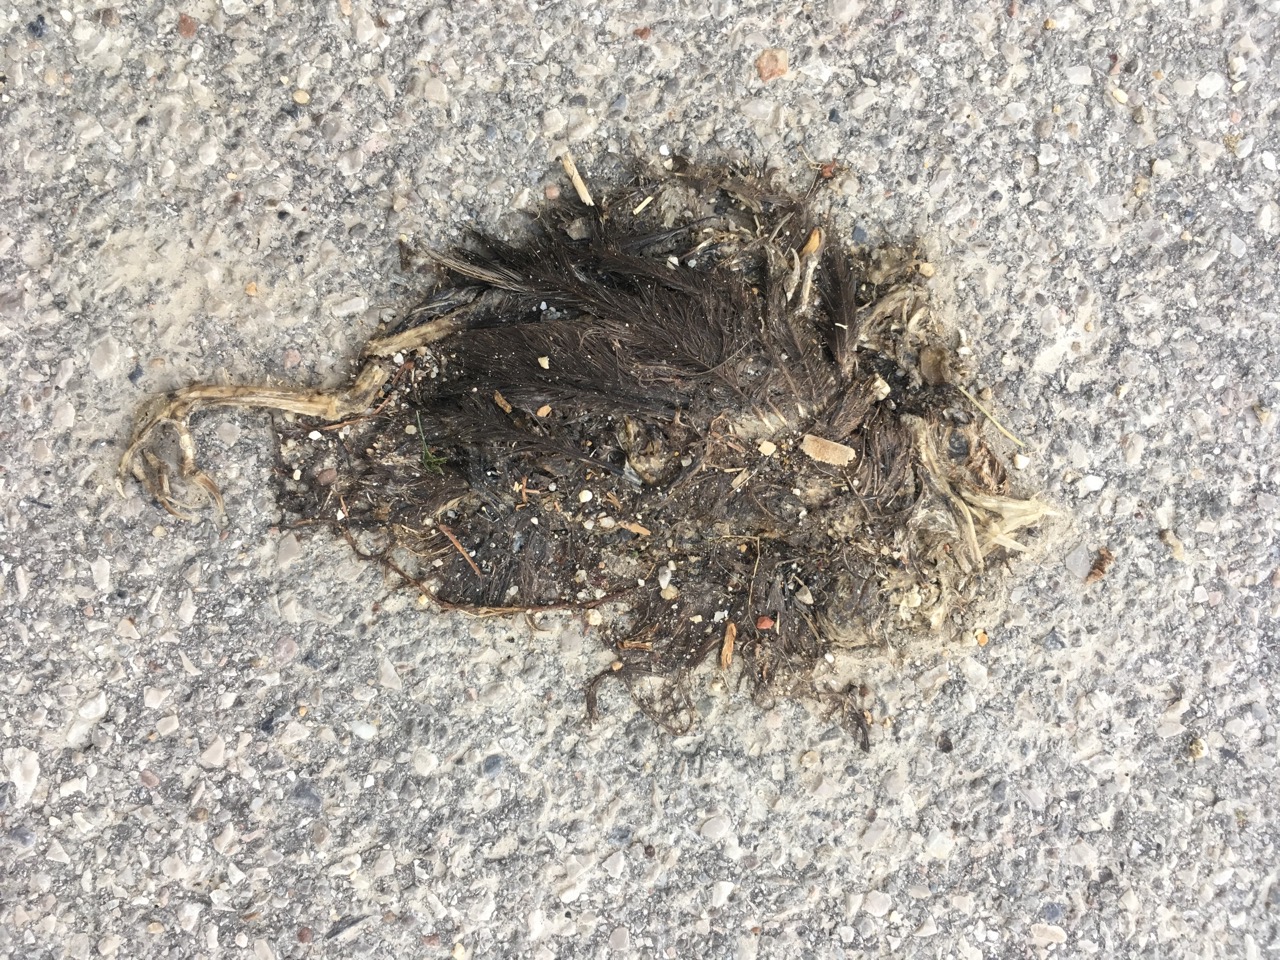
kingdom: Animalia
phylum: Chordata
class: Aves
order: Passeriformes
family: Turdidae
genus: Turdus
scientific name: Turdus merula
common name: Common blackbird
